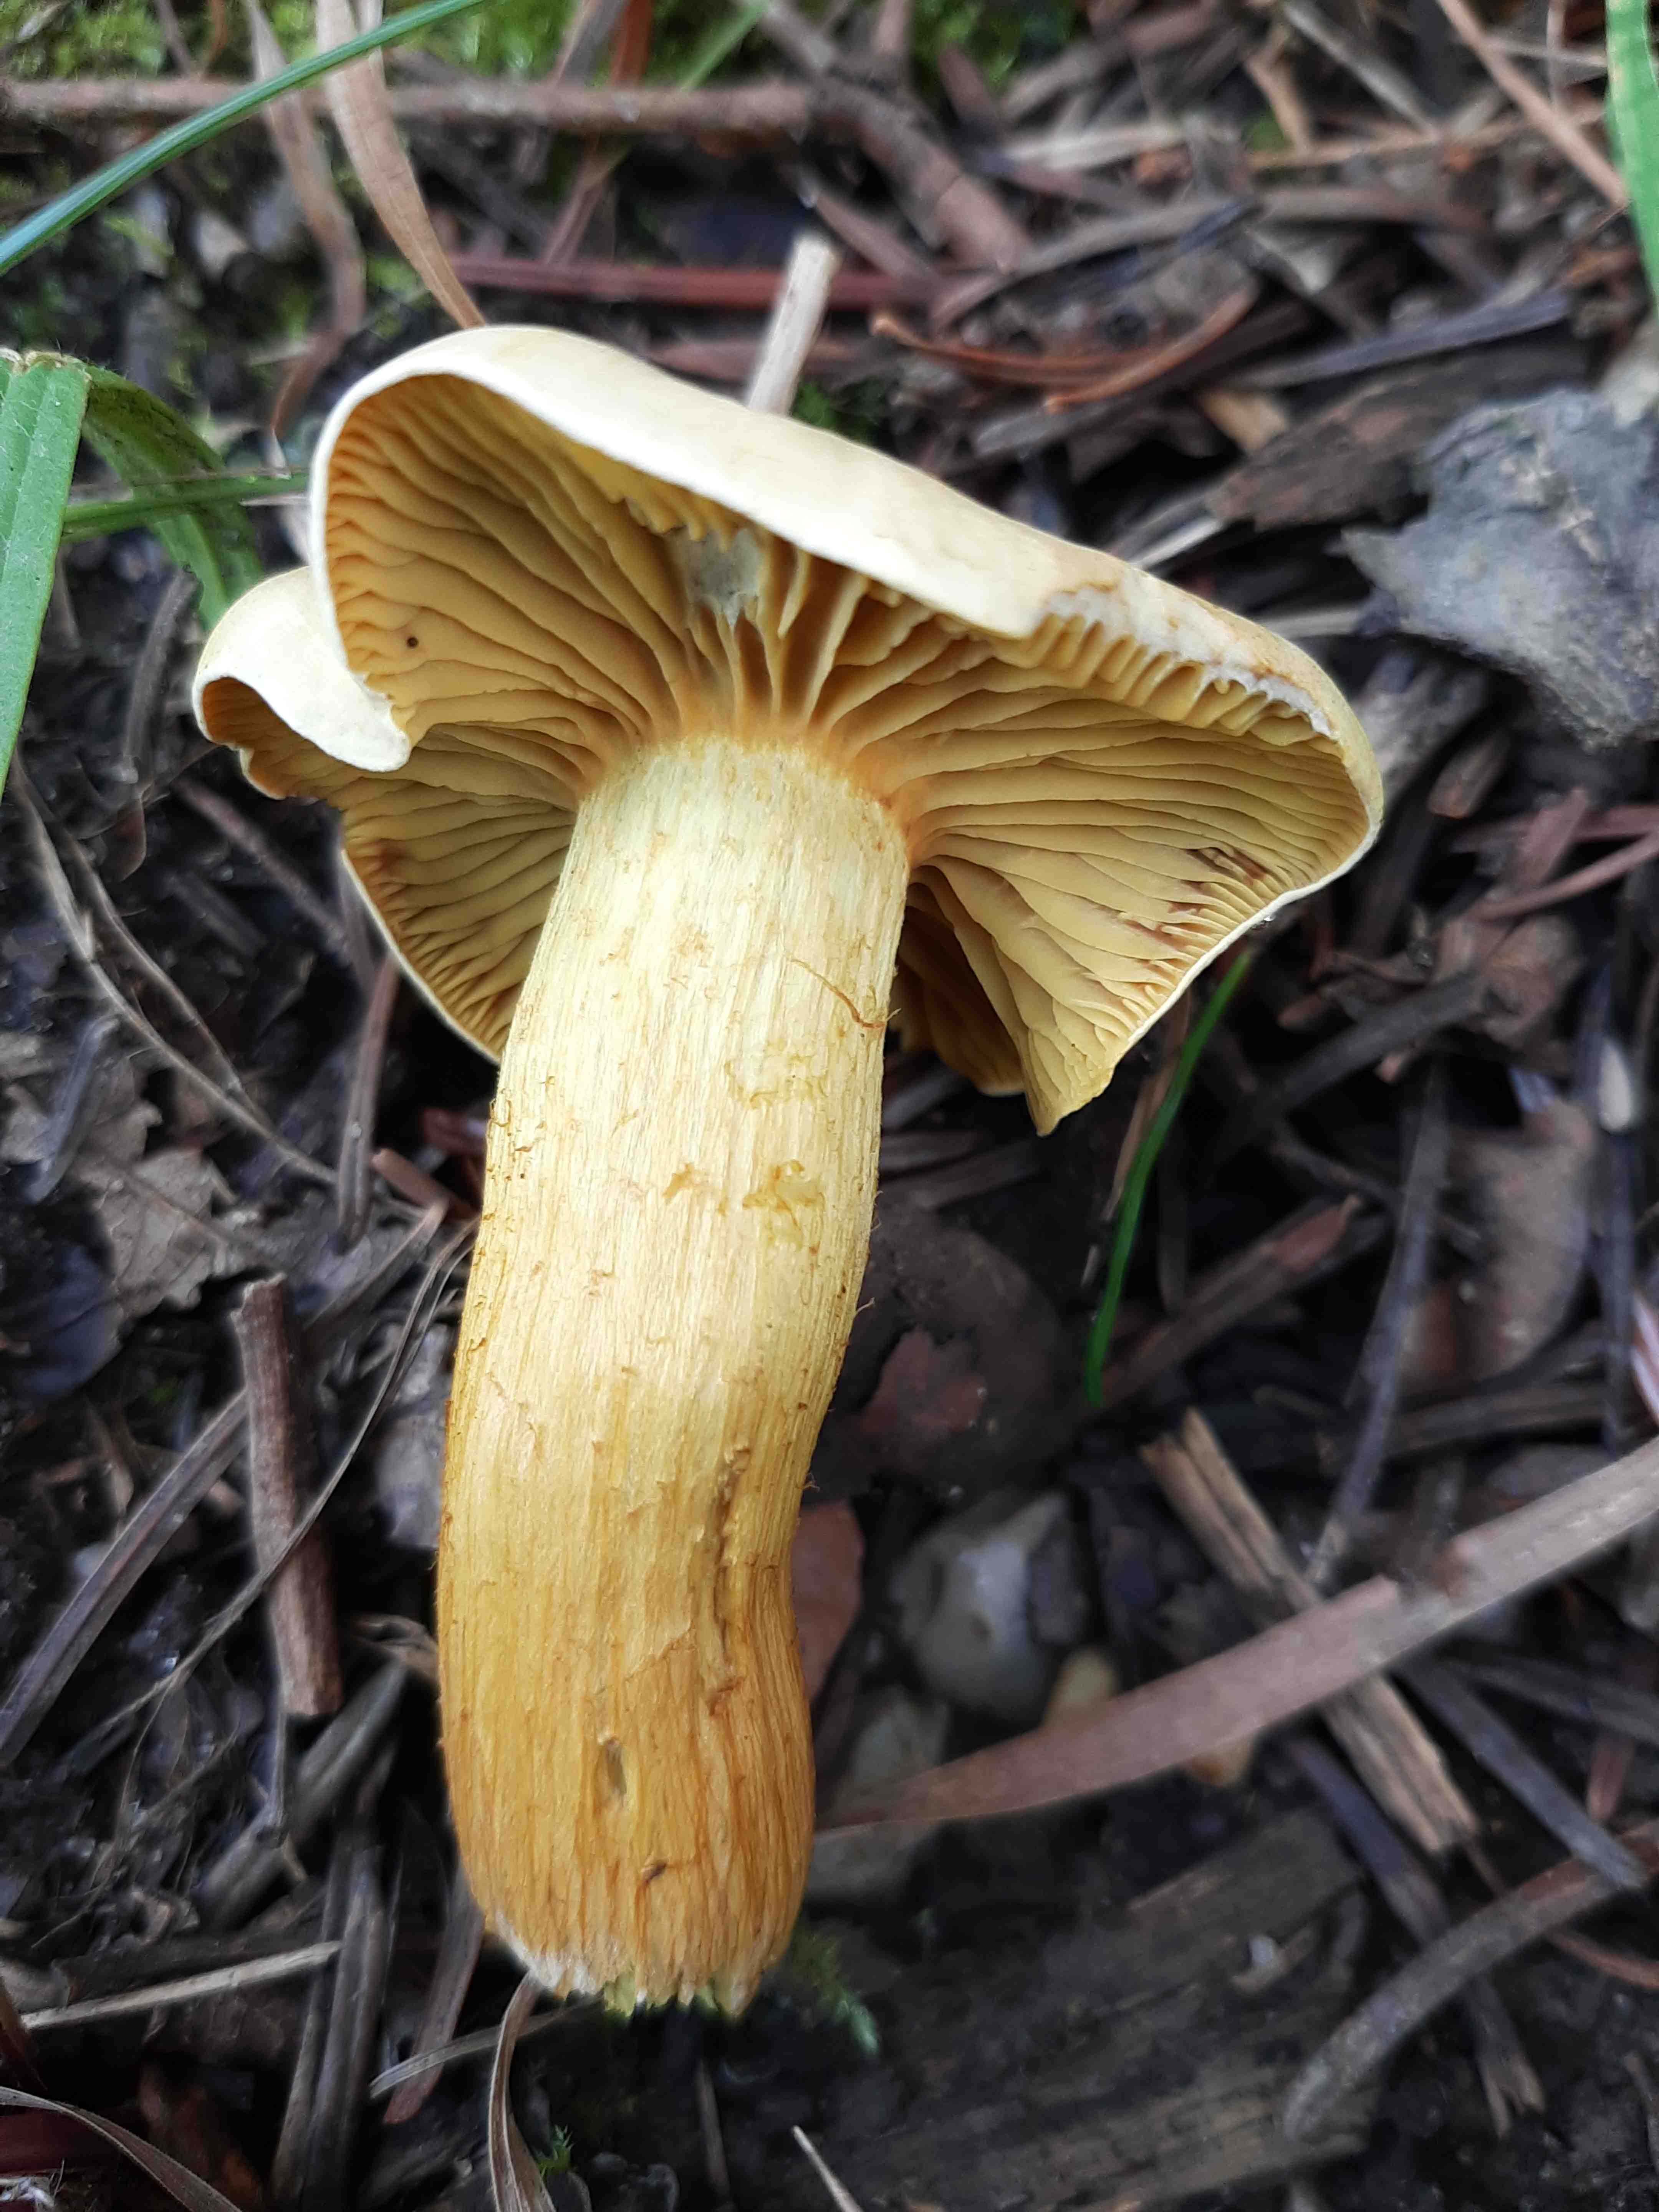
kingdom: Fungi
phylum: Basidiomycota
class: Agaricomycetes
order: Agaricales
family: Tricholomataceae
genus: Tricholoma
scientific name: Tricholoma sulphureum
